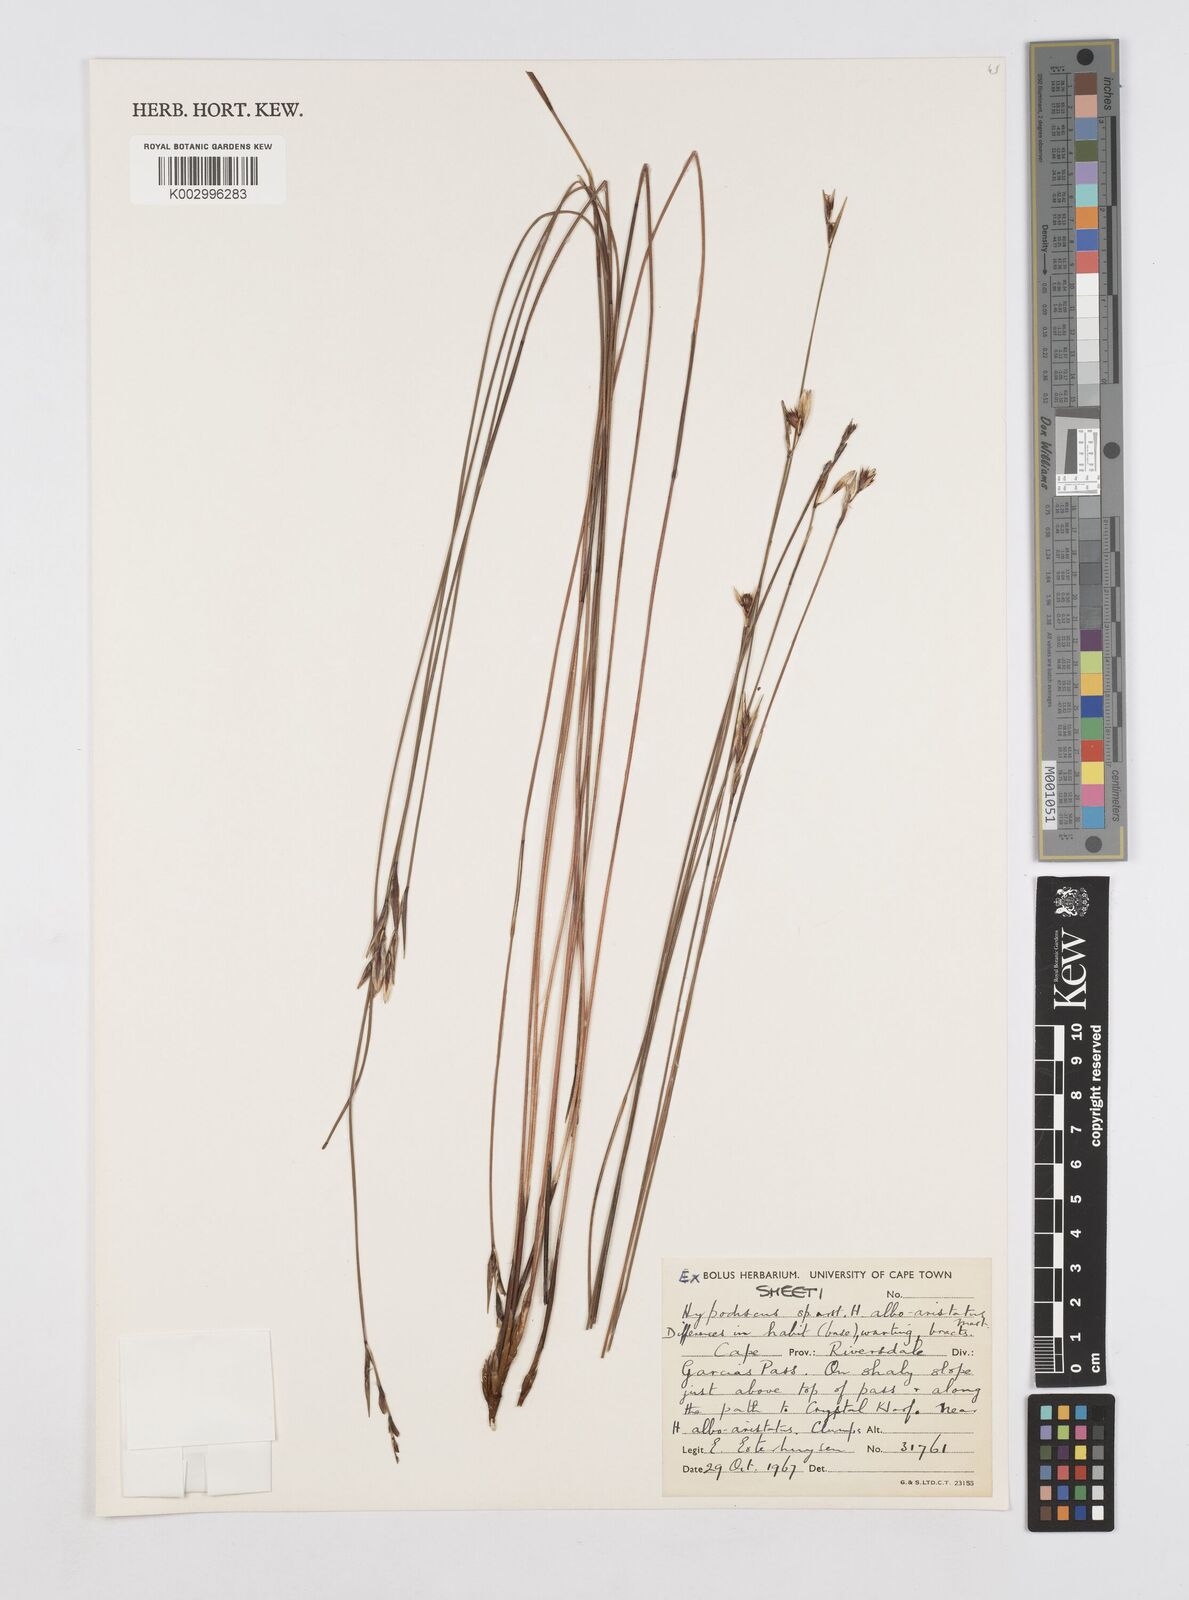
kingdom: Plantae
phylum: Tracheophyta
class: Liliopsida
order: Poales
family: Restionaceae
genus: Hypodiscus
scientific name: Hypodiscus alboaristatus
